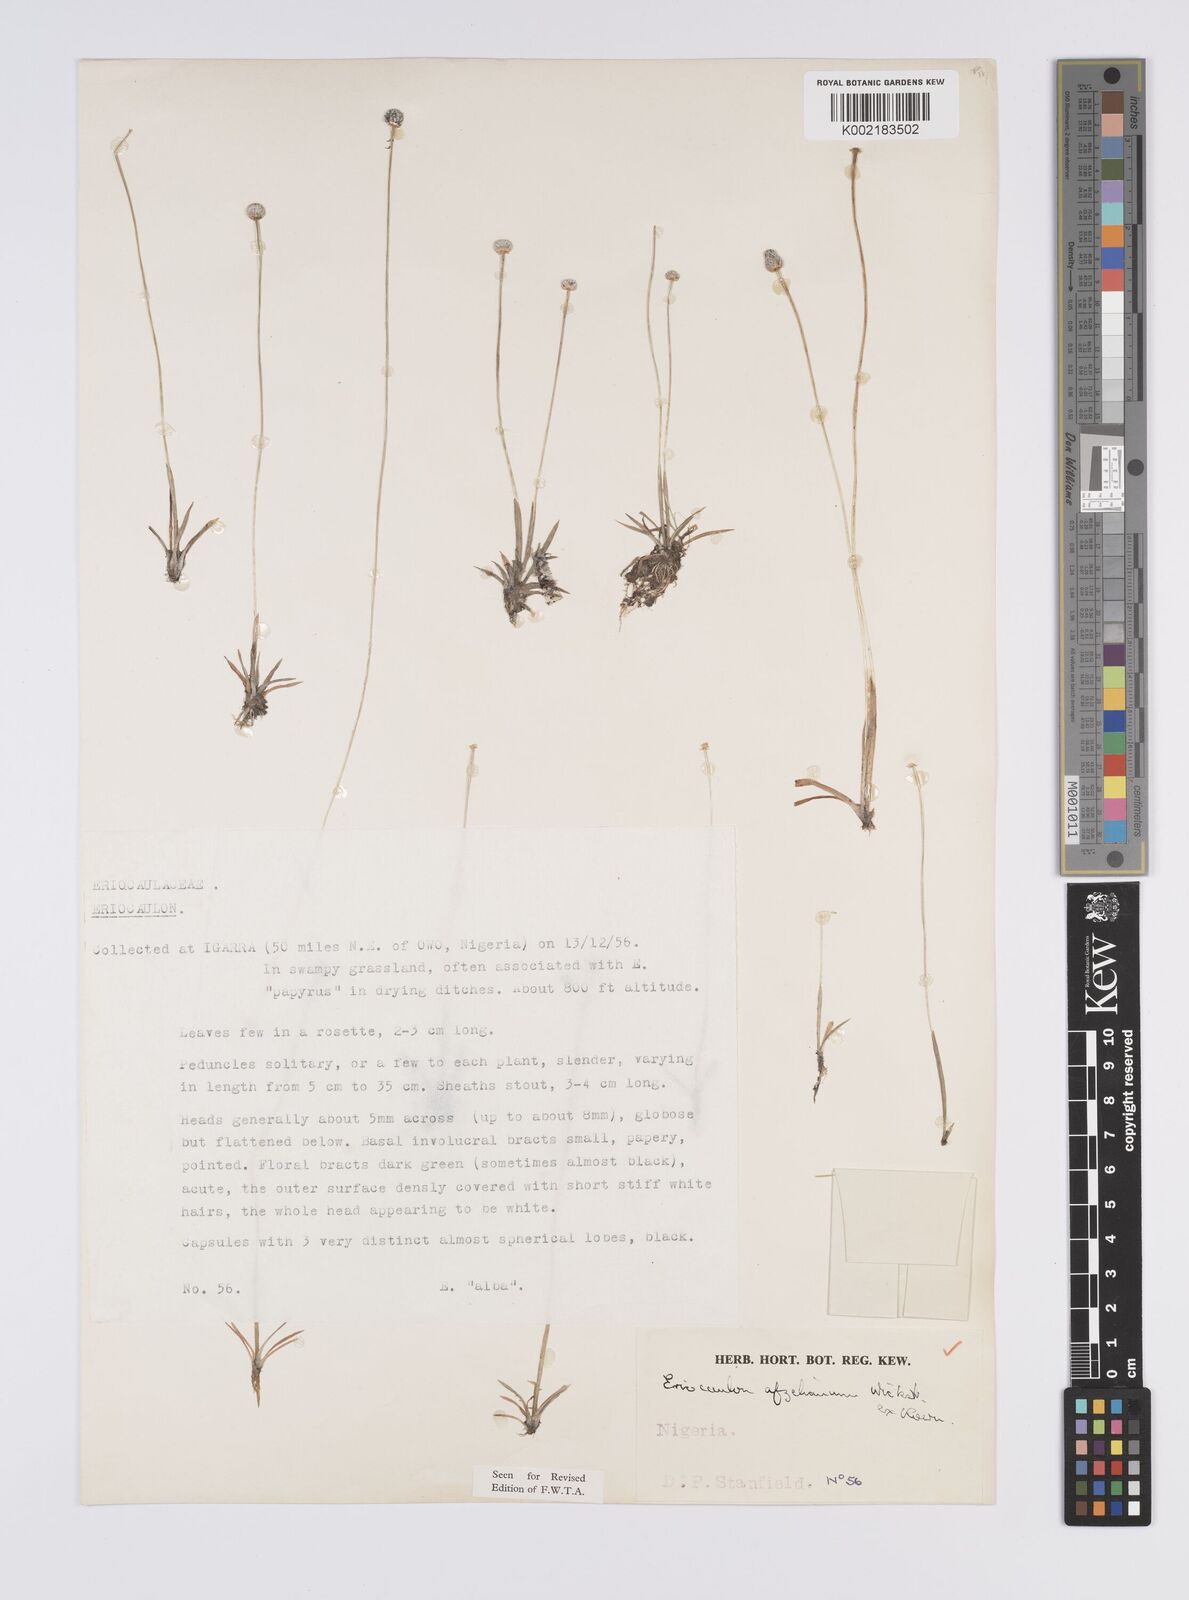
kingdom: Plantae
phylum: Tracheophyta
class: Liliopsida
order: Poales
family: Eriocaulaceae
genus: Eriocaulon
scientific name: Eriocaulon afzelianum
